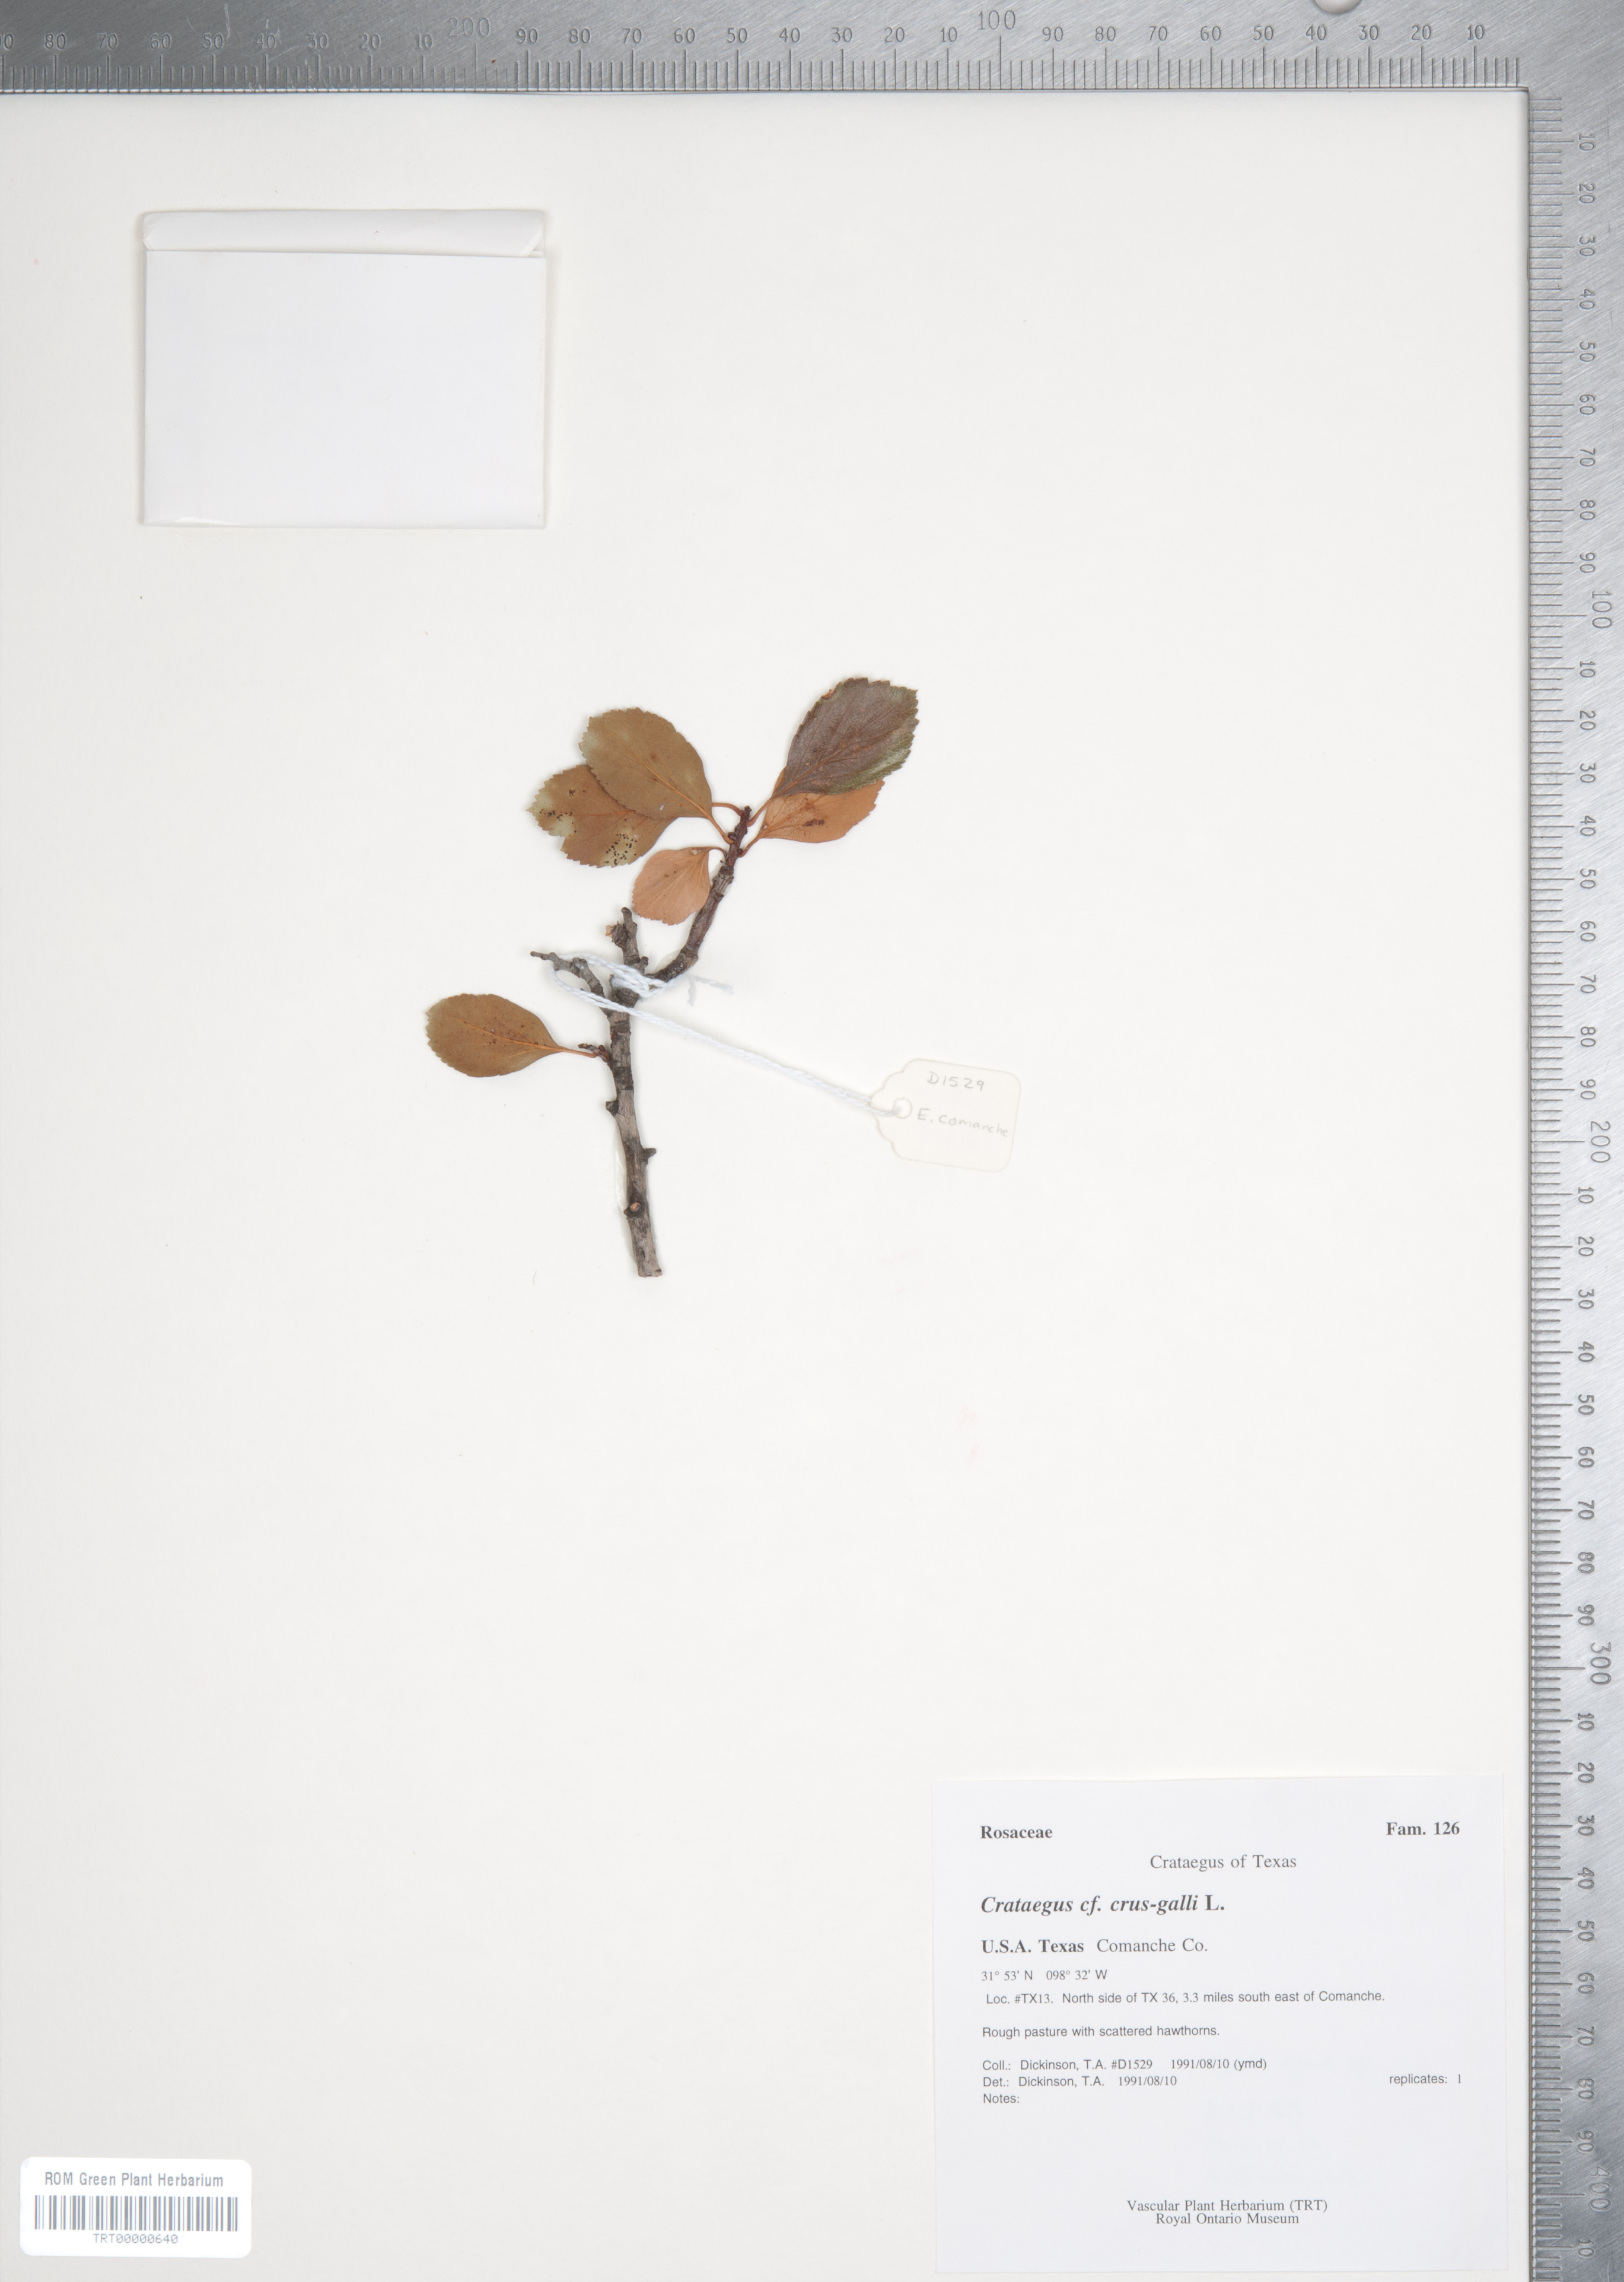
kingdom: Plantae
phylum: Tracheophyta
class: Magnoliopsida
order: Rosales
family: Rosaceae
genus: Crataegus
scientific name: Crataegus crus-galli
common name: Cockspurthorn
